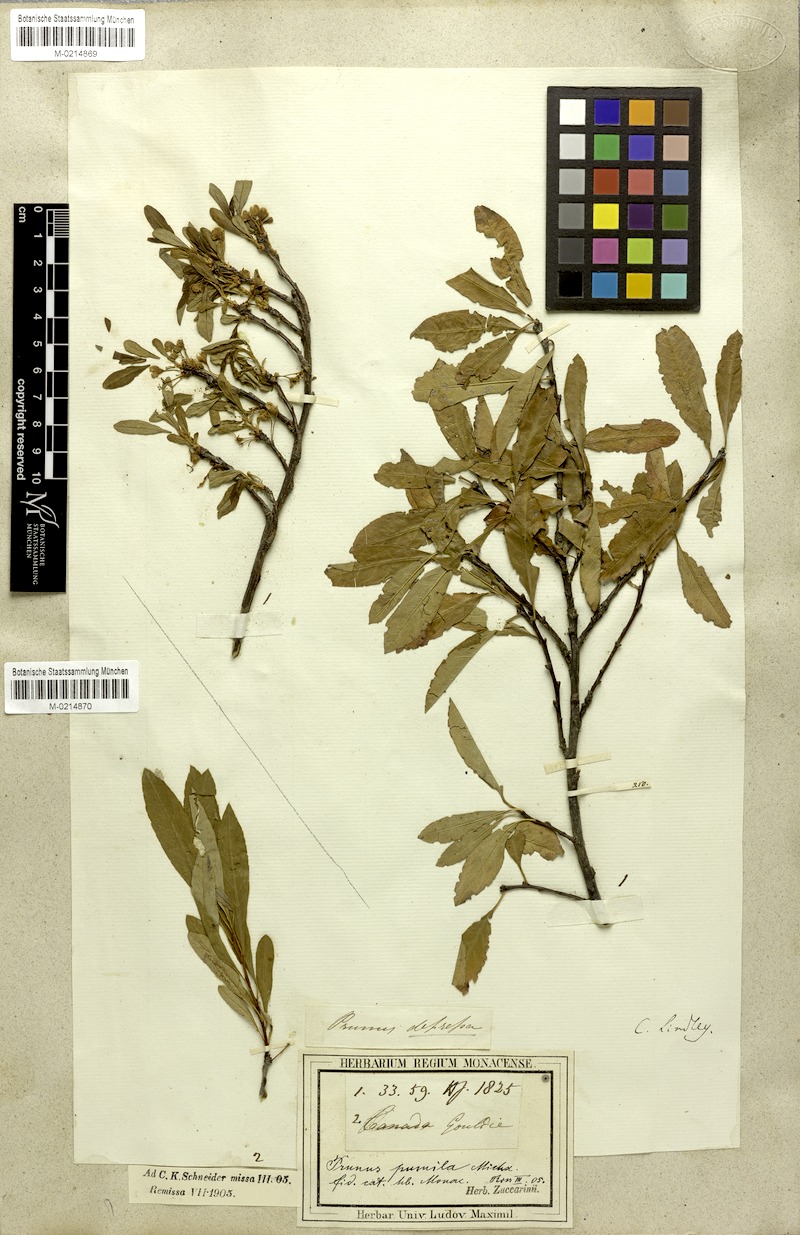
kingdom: Plantae
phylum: Tracheophyta
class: Magnoliopsida
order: Rosales
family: Rosaceae
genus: Prunus
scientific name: Prunus pumila
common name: Dwarf cherry
